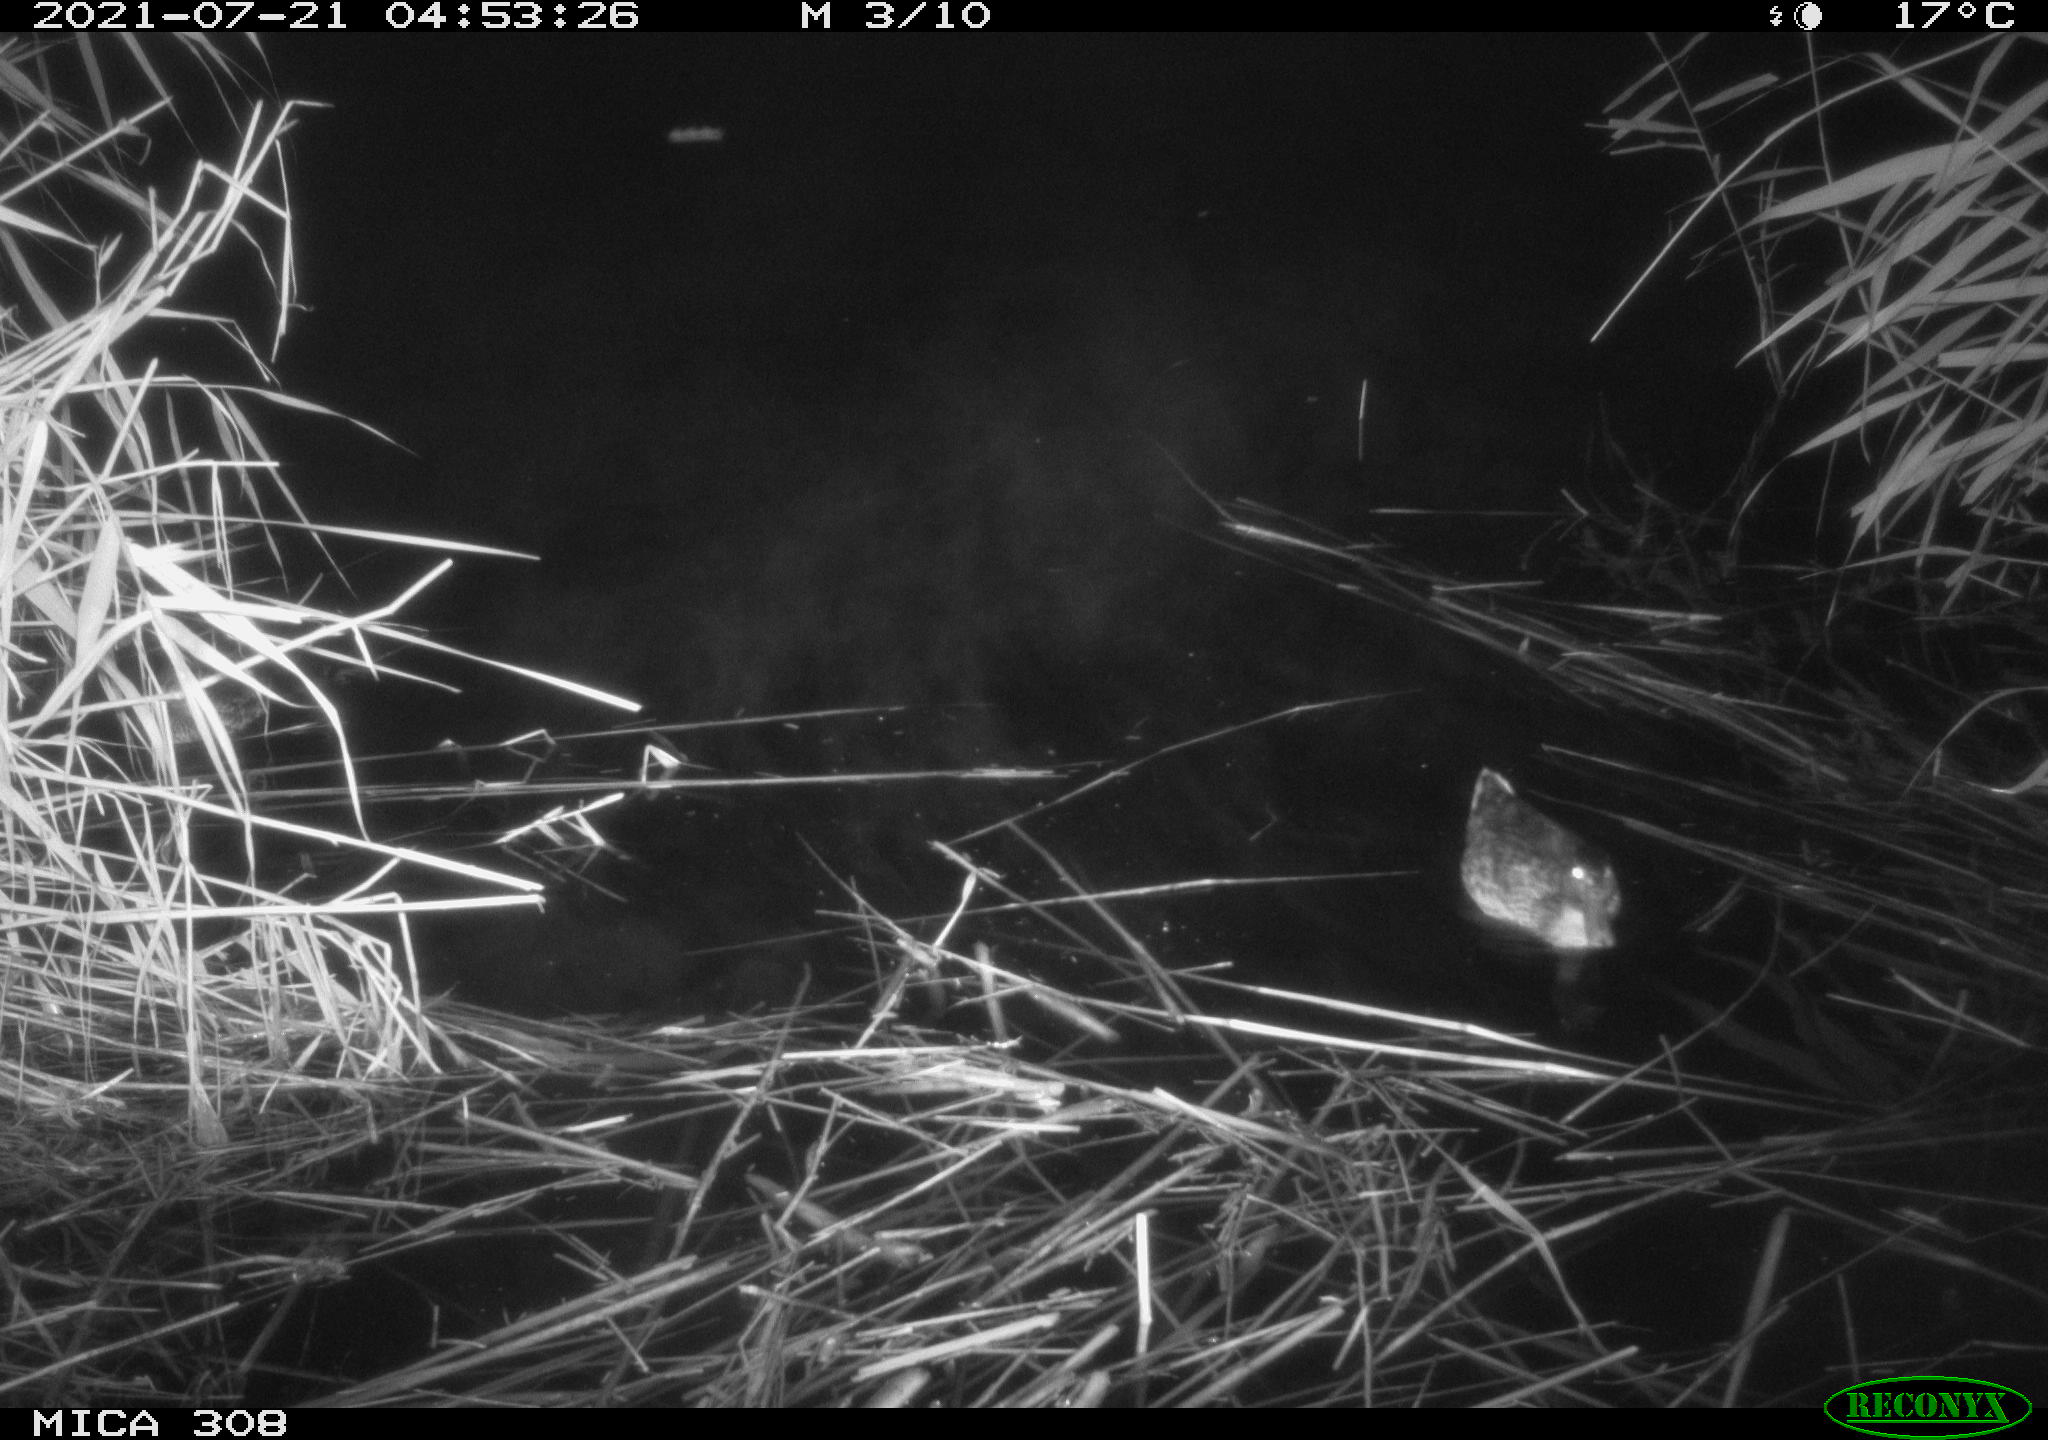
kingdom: Animalia
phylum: Chordata
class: Aves
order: Anseriformes
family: Anatidae
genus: Anas
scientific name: Anas platyrhynchos
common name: Mallard
